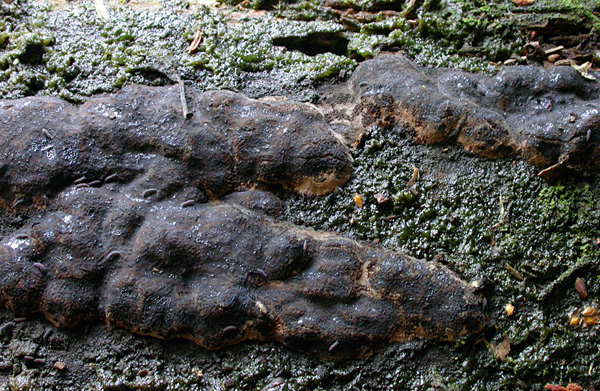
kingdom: Fungi
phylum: Ascomycota
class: Sordariomycetes
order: Boliniales
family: Boliniaceae
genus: Camarops
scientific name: Camarops tubulina
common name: knudret kulsnegl
